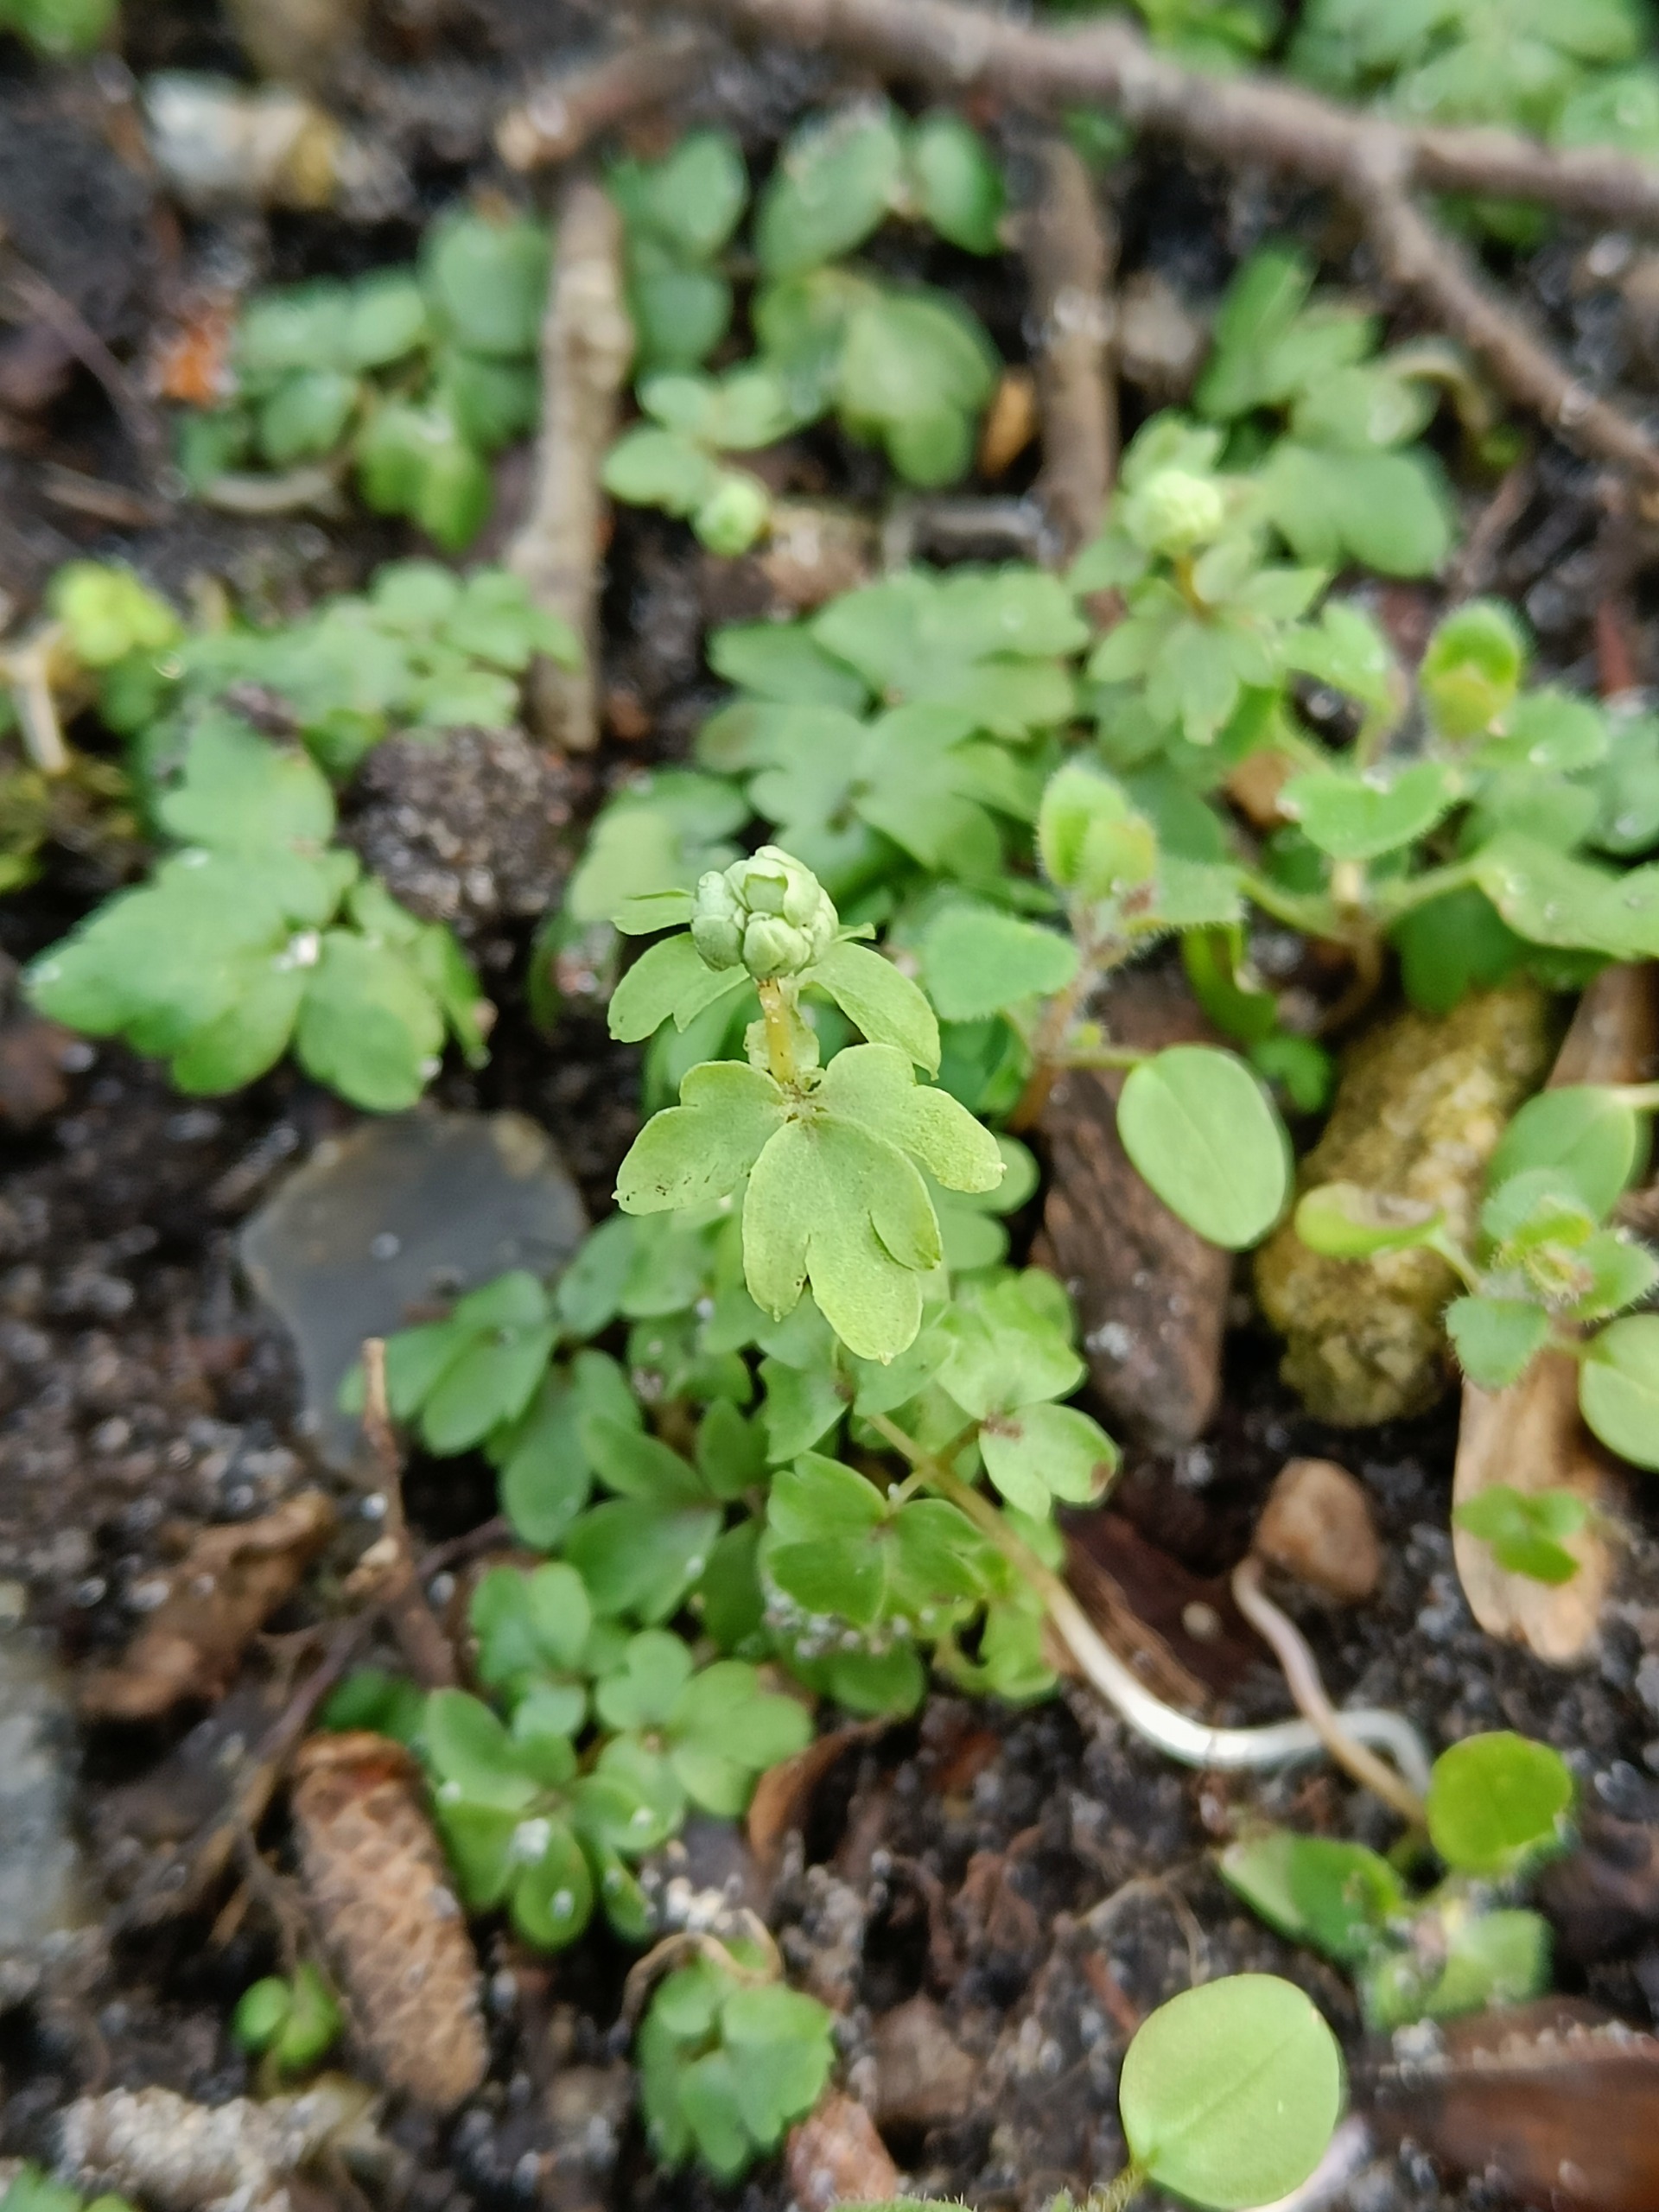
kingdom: Plantae
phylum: Tracheophyta
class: Magnoliopsida
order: Dipsacales
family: Viburnaceae
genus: Adoxa
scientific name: Adoxa moschatellina
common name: Desmerurt
